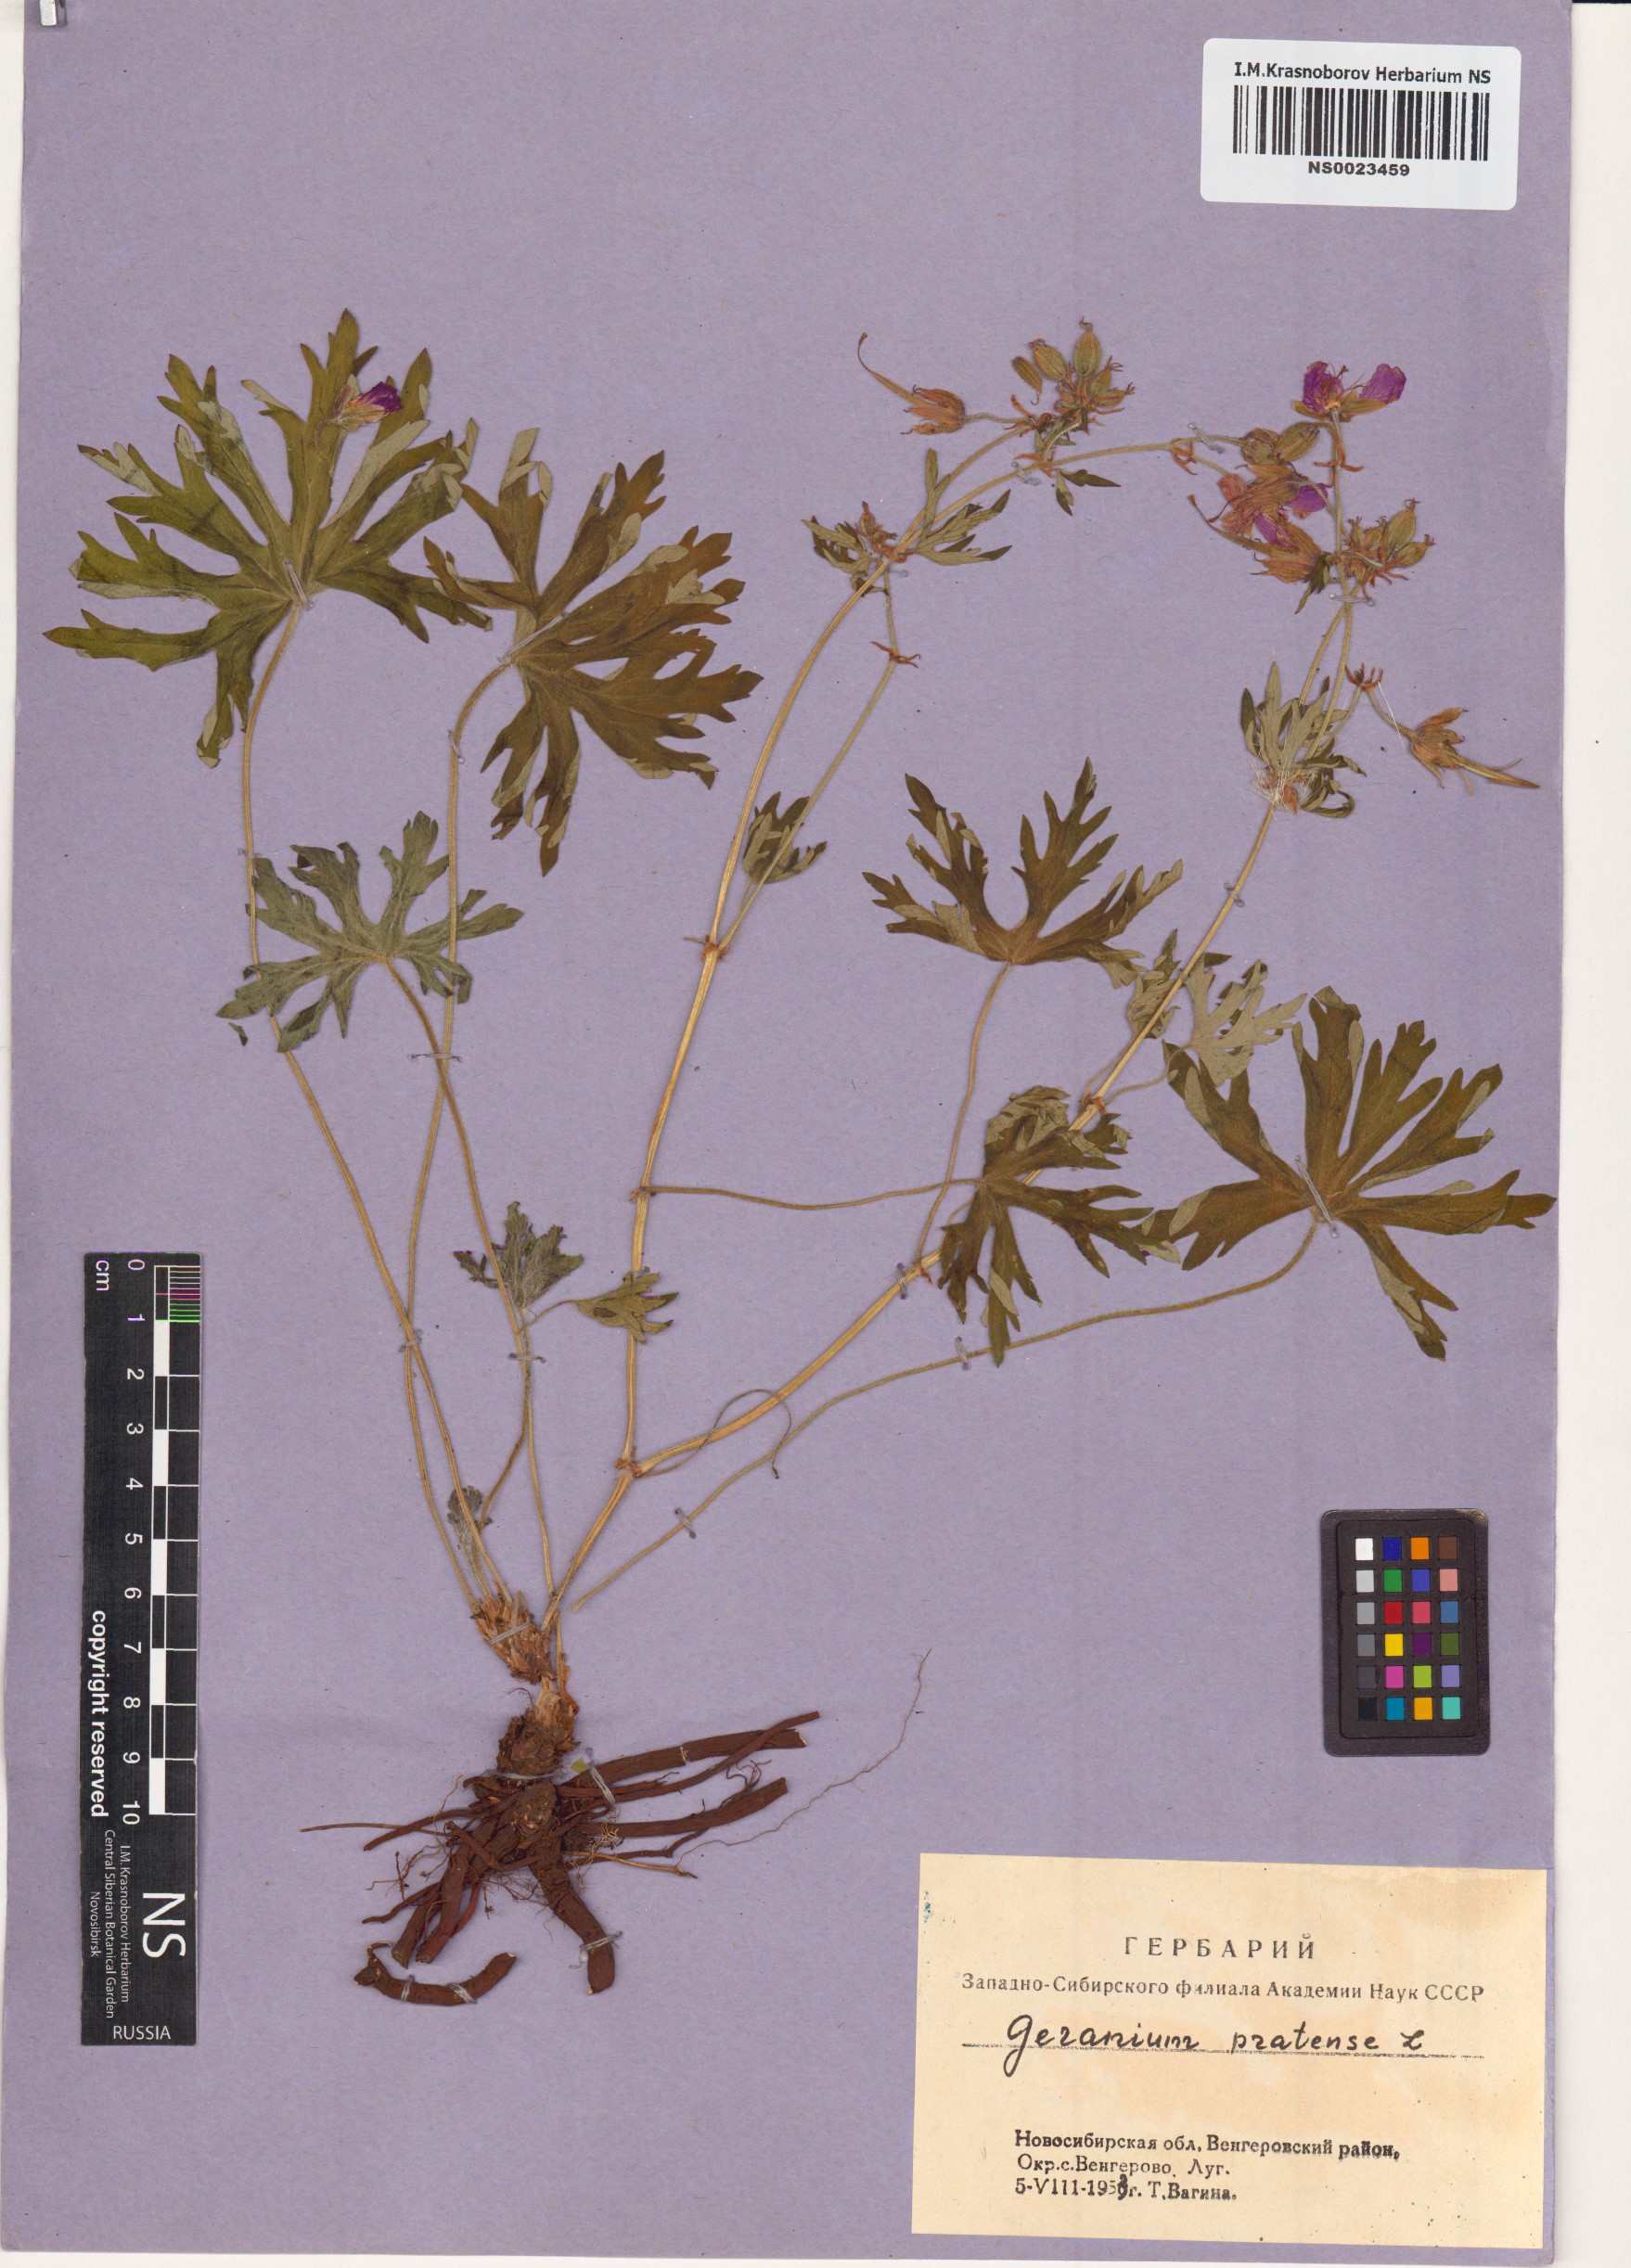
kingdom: Plantae
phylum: Tracheophyta
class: Magnoliopsida
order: Geraniales
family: Geraniaceae
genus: Geranium
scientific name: Geranium pratense
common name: Meadow crane's-bill
